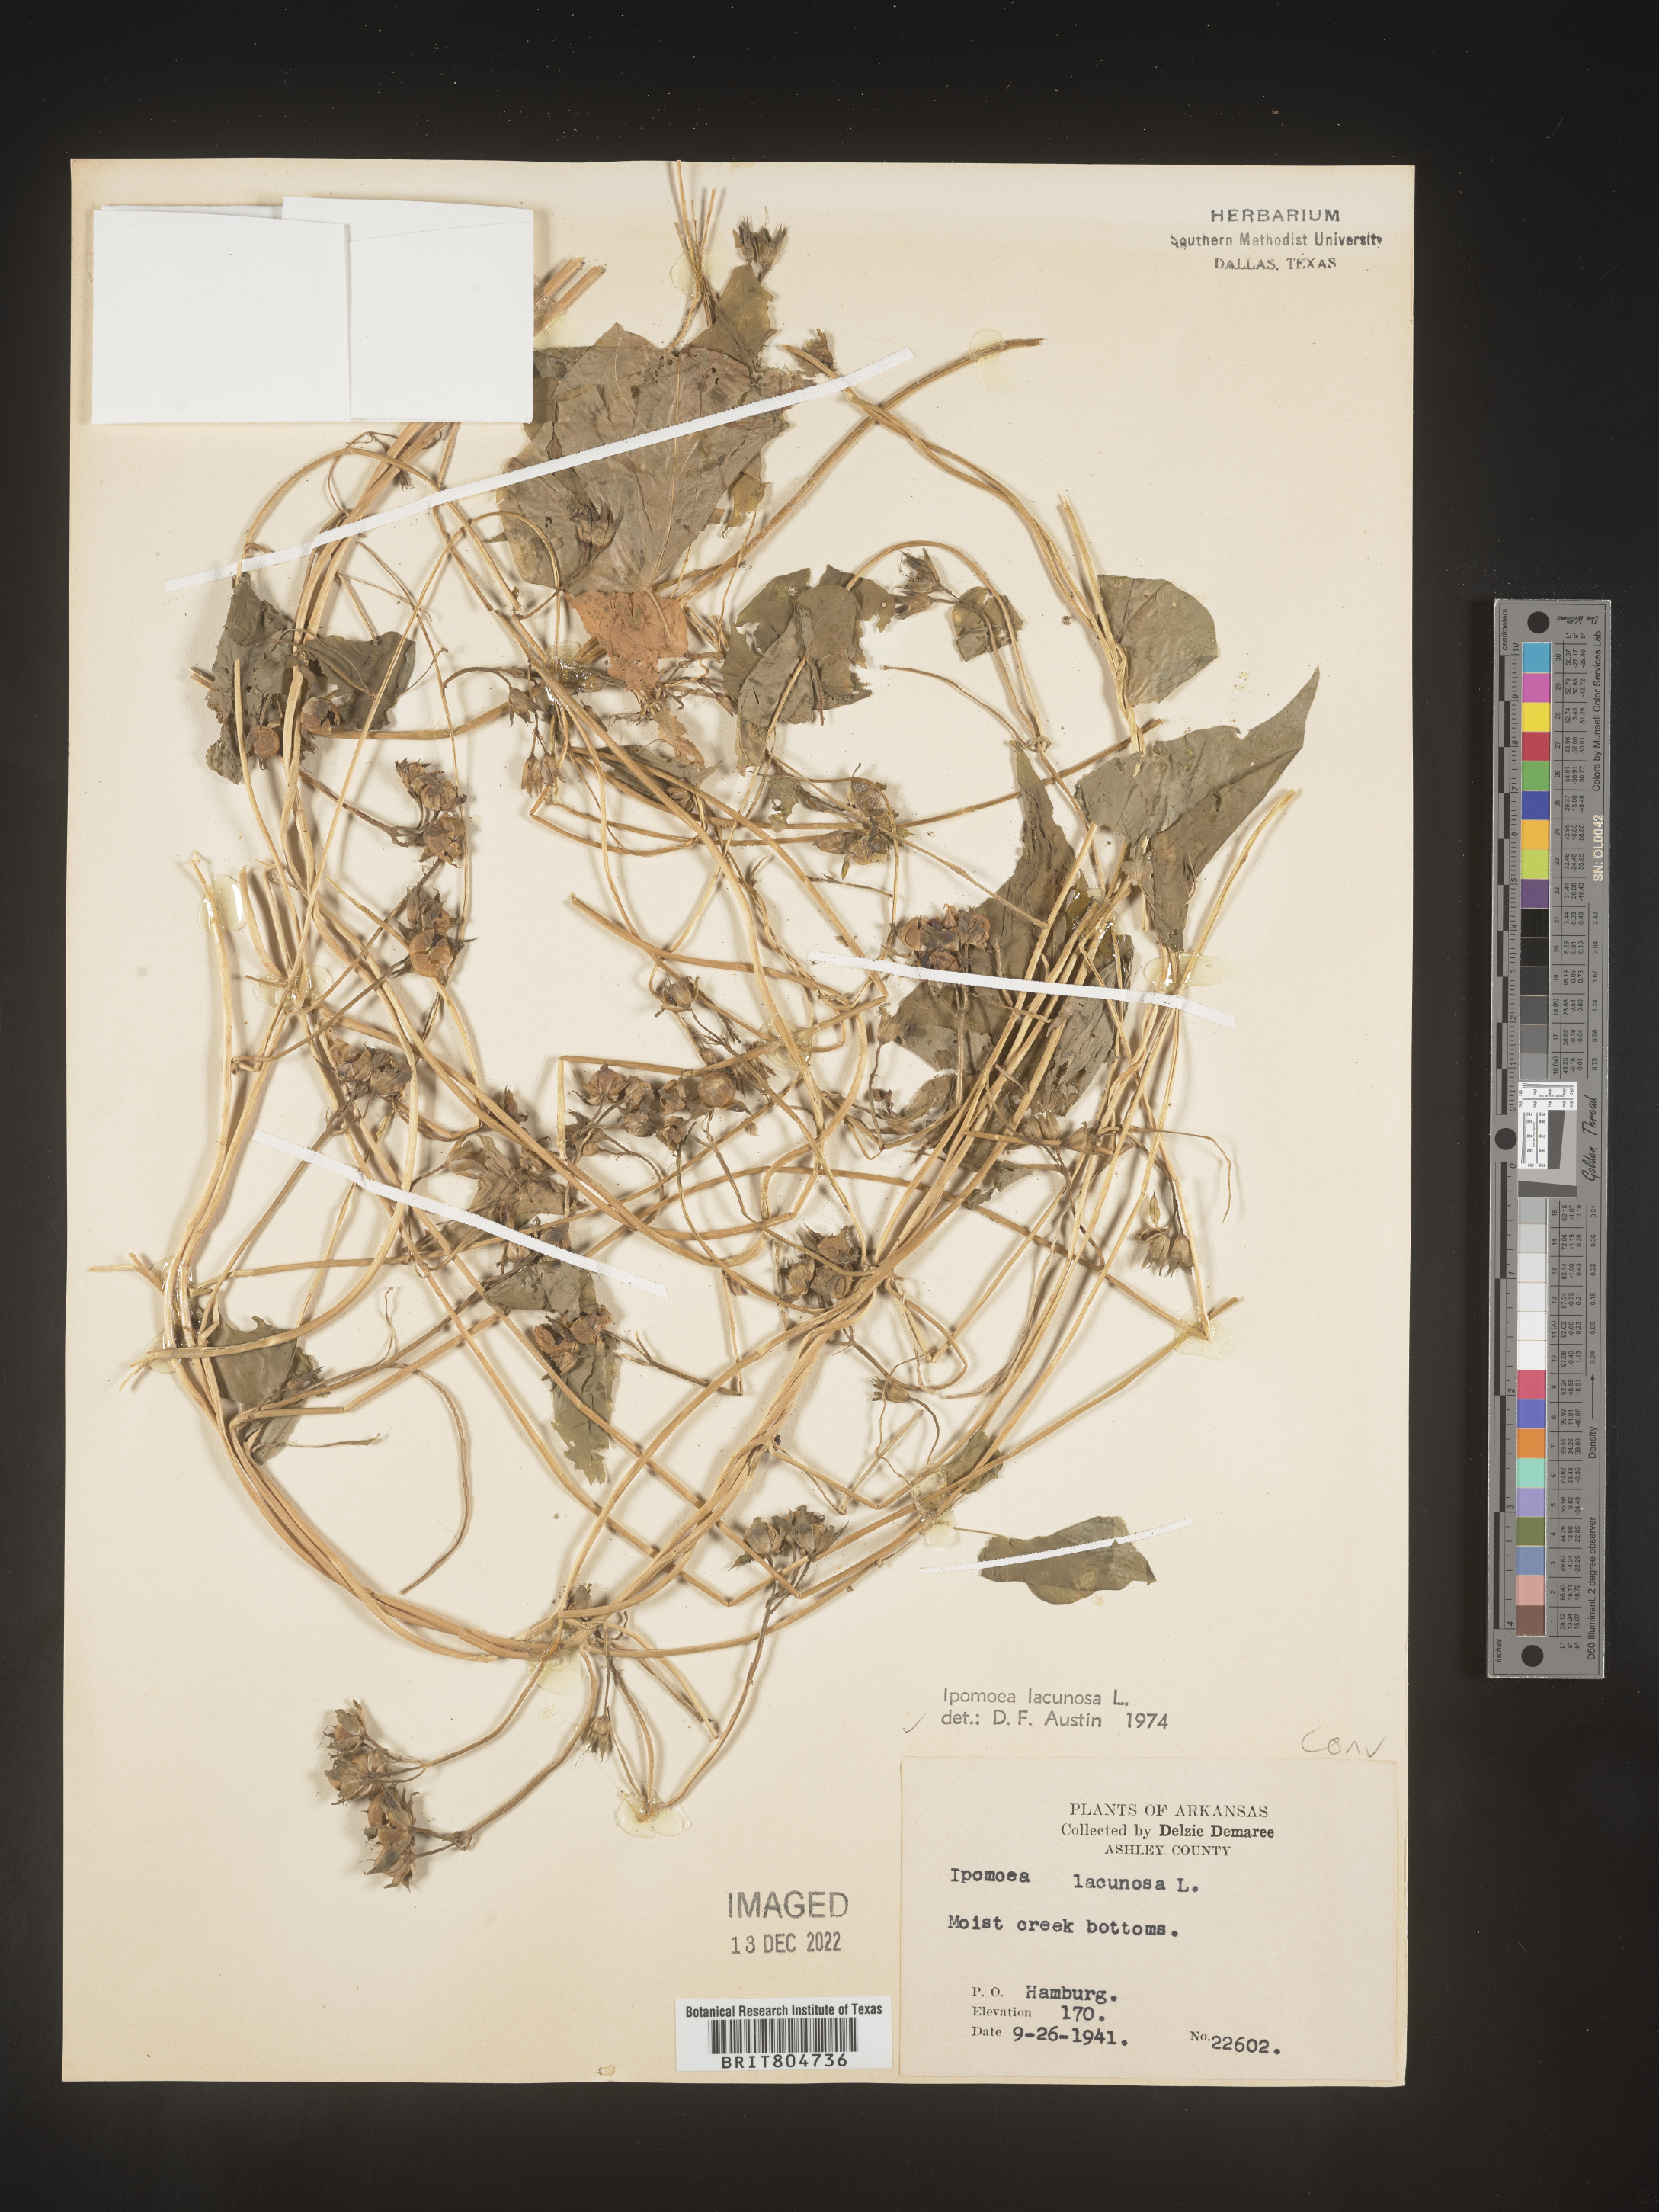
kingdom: Plantae
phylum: Tracheophyta
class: Magnoliopsida
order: Solanales
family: Convolvulaceae
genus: Ipomoea
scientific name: Ipomoea lacunosa
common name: White morning-glory
